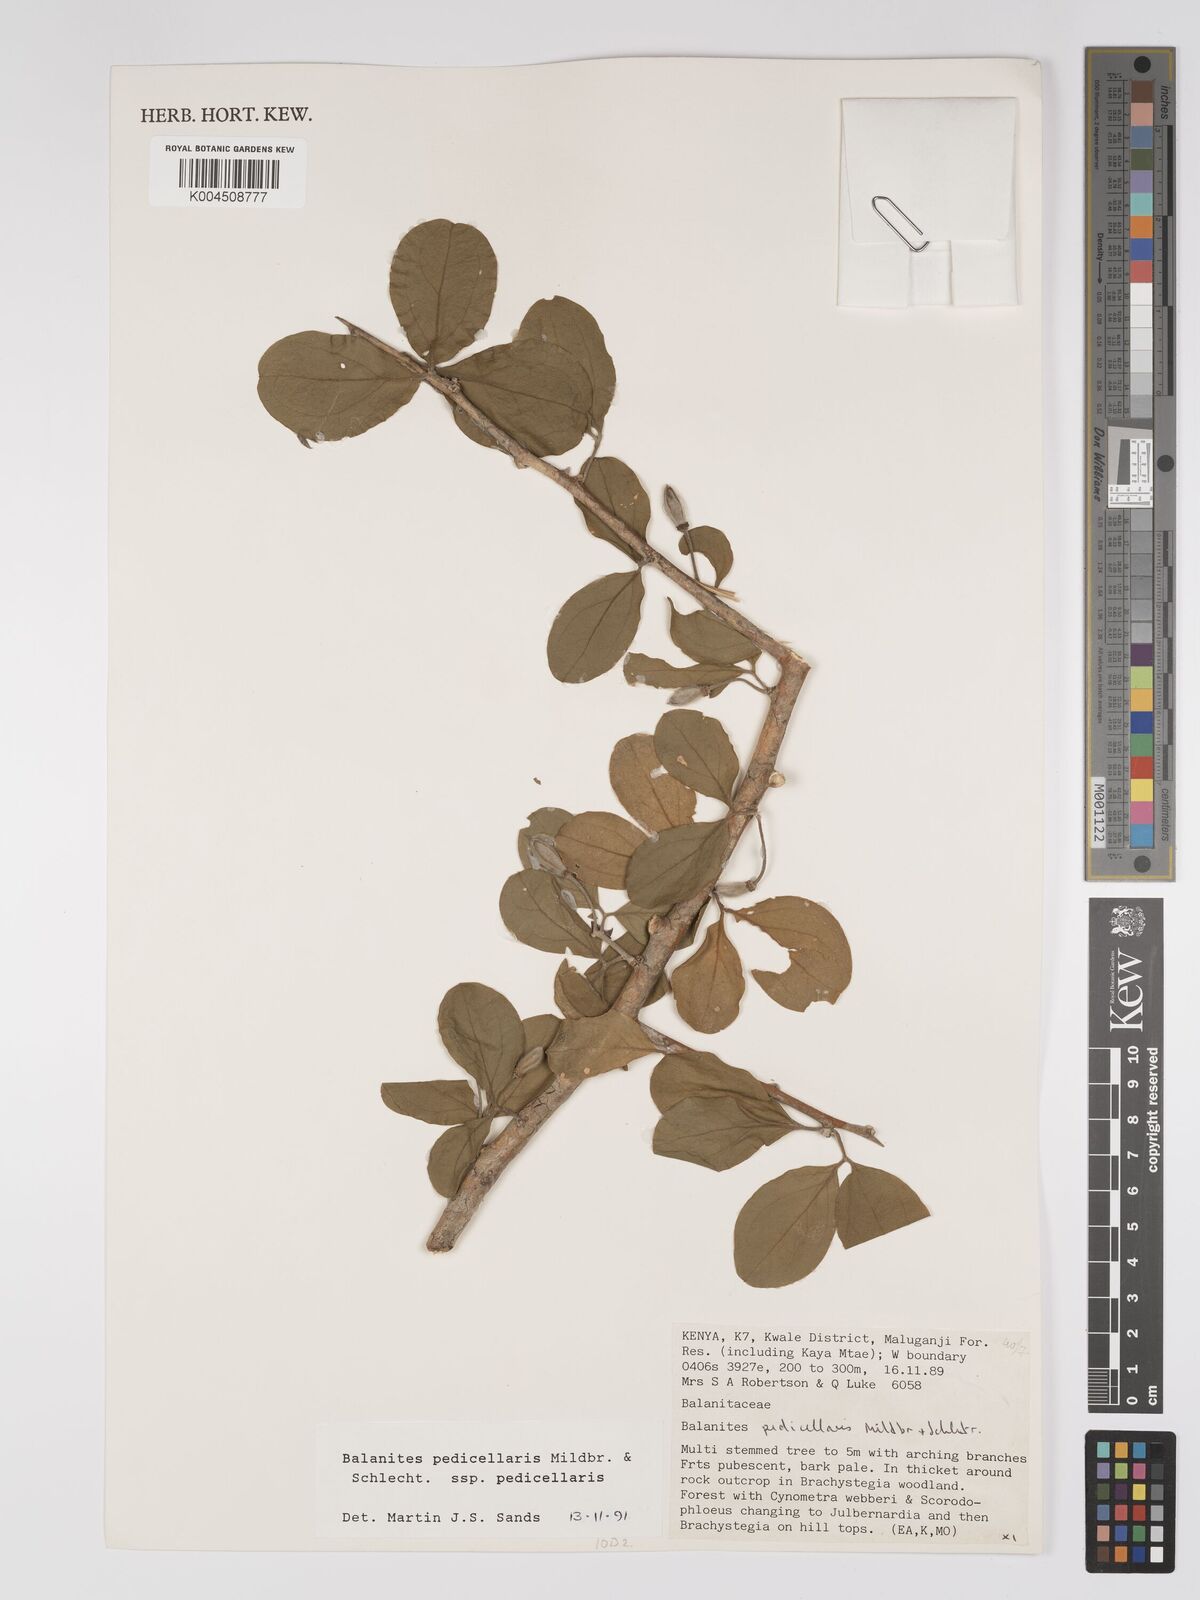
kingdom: Plantae
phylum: Tracheophyta
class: Magnoliopsida
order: Zygophyllales
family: Zygophyllaceae
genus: Balanites
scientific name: Balanites pedicellaris
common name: Small green-thorn
